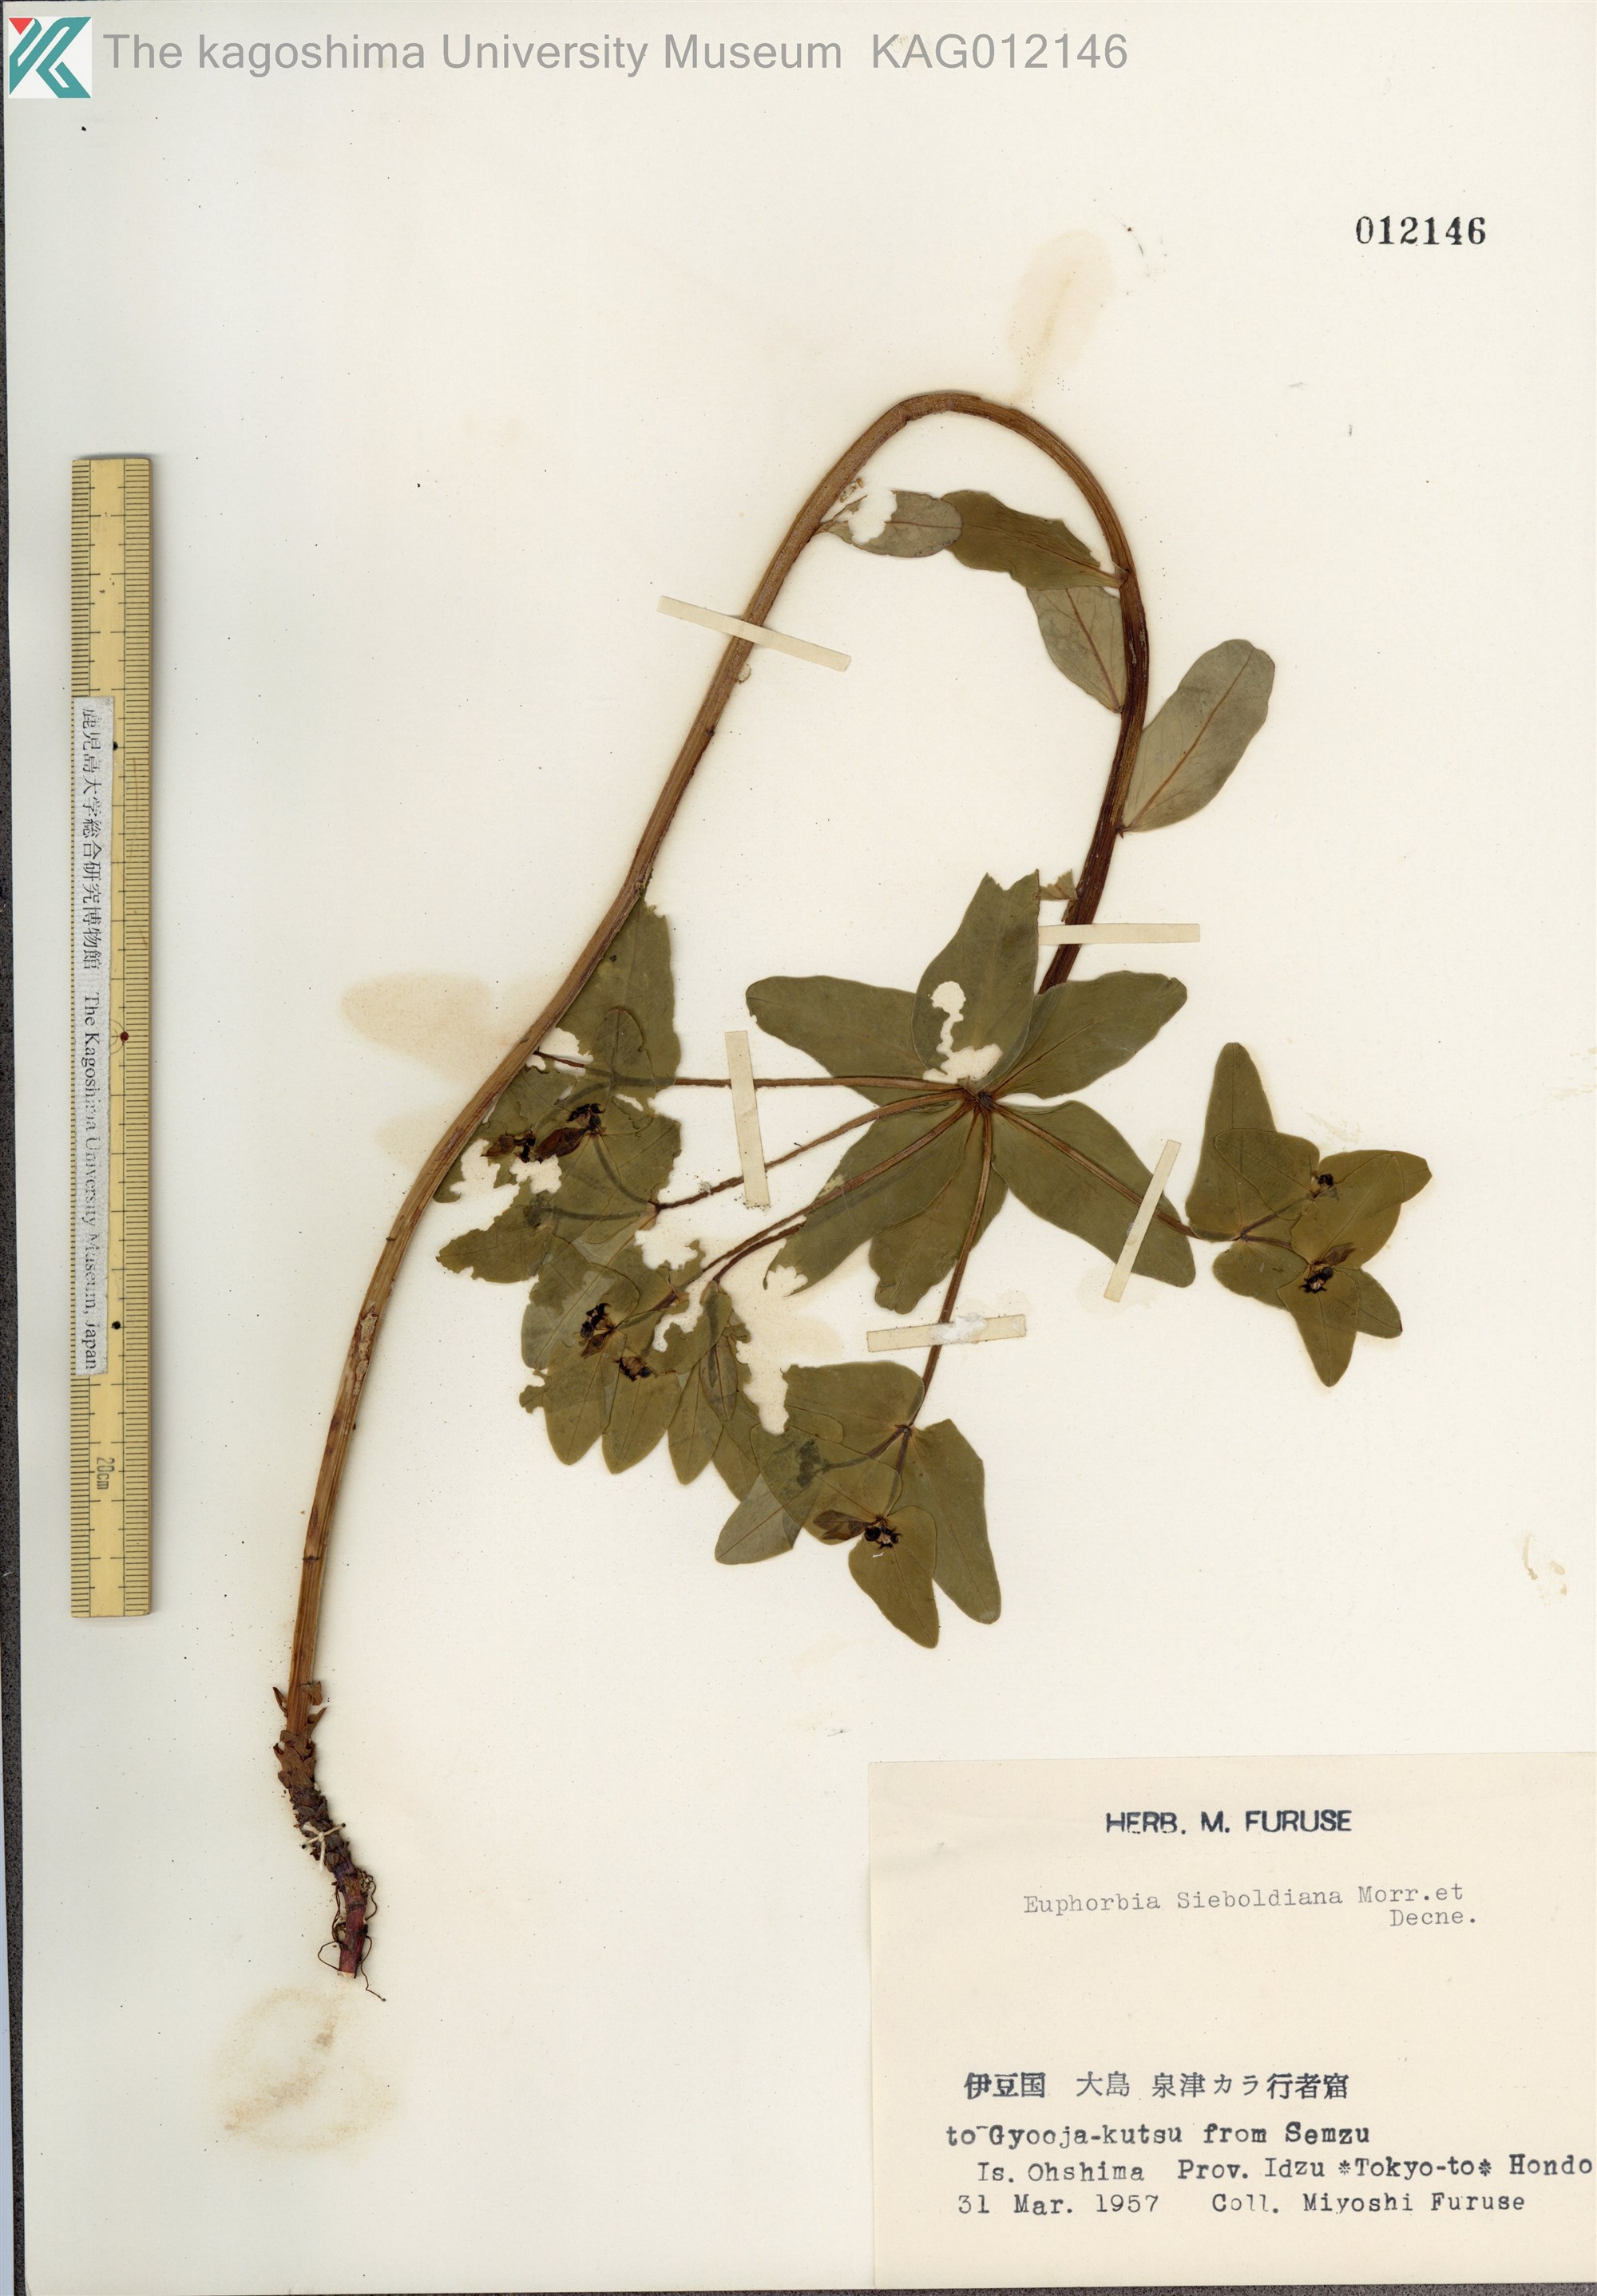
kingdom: Plantae
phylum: Tracheophyta
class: Magnoliopsida
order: Malpighiales
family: Euphorbiaceae
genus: Euphorbia
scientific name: Euphorbia sieboldiana
